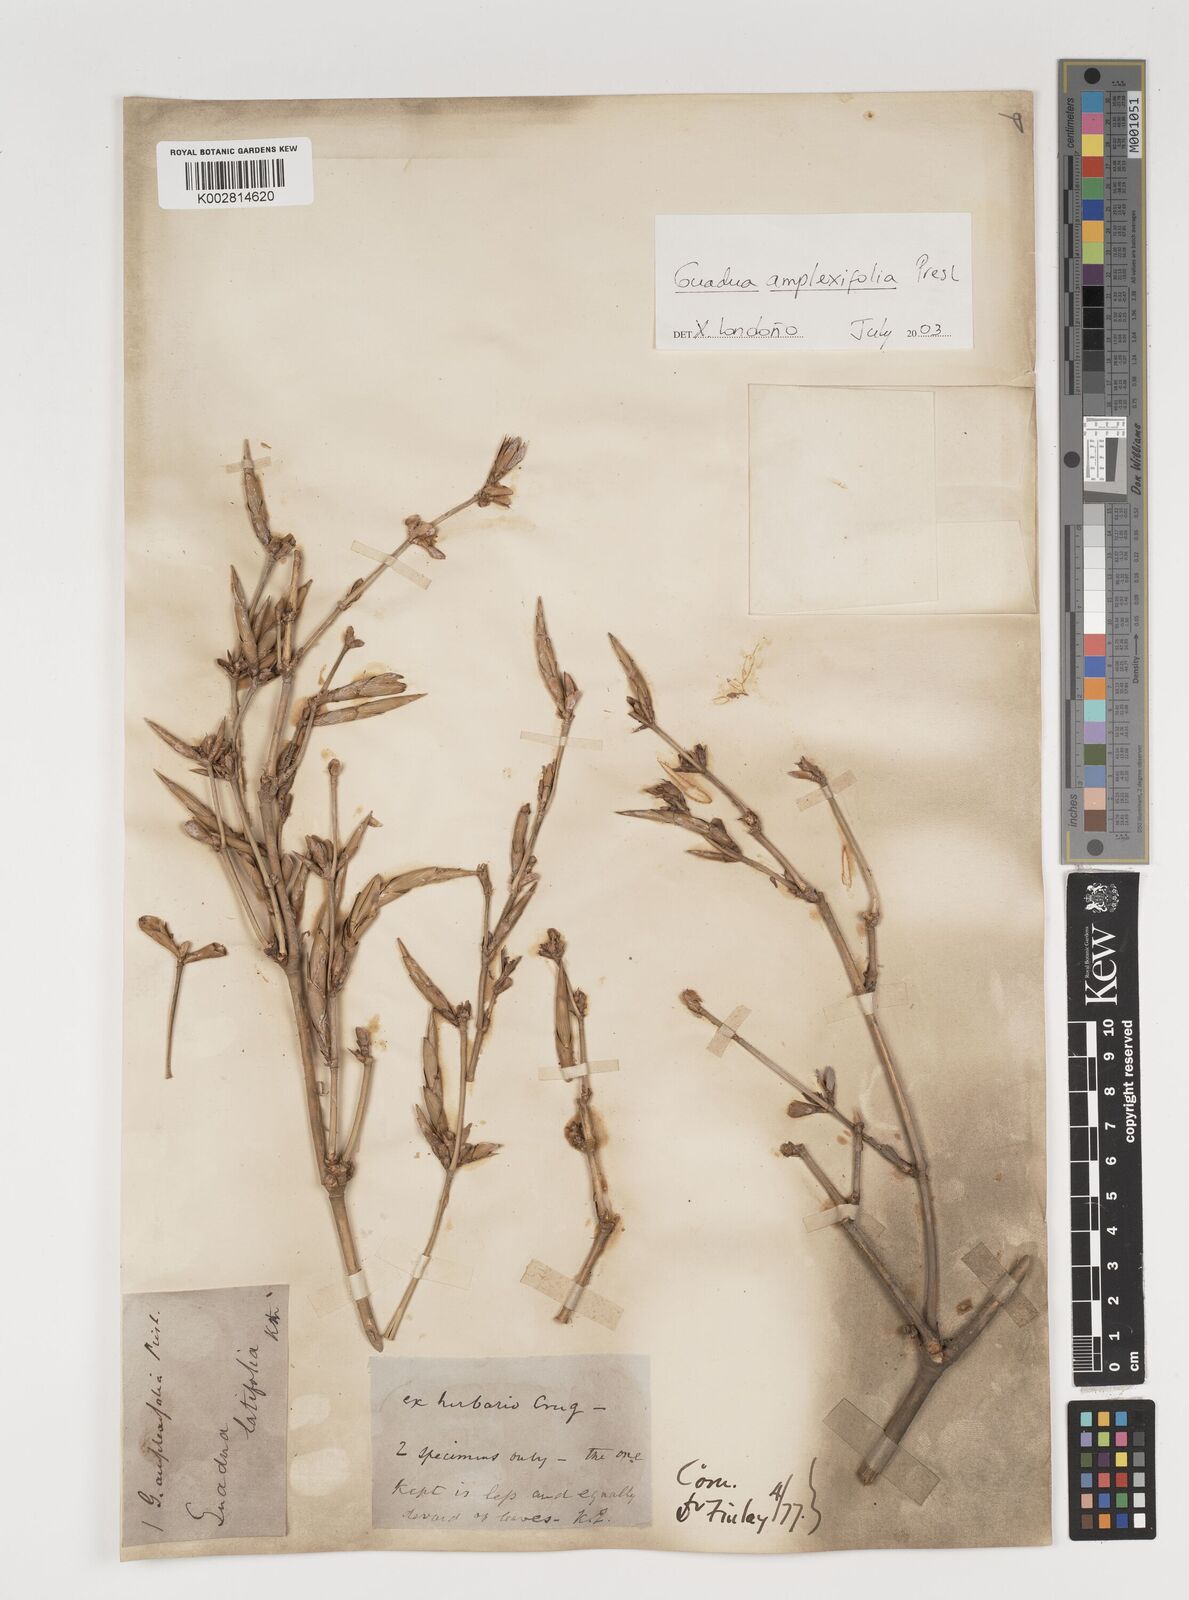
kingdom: Plantae
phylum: Tracheophyta
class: Liliopsida
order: Poales
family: Poaceae
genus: Guadua
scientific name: Guadua amplexifolia
